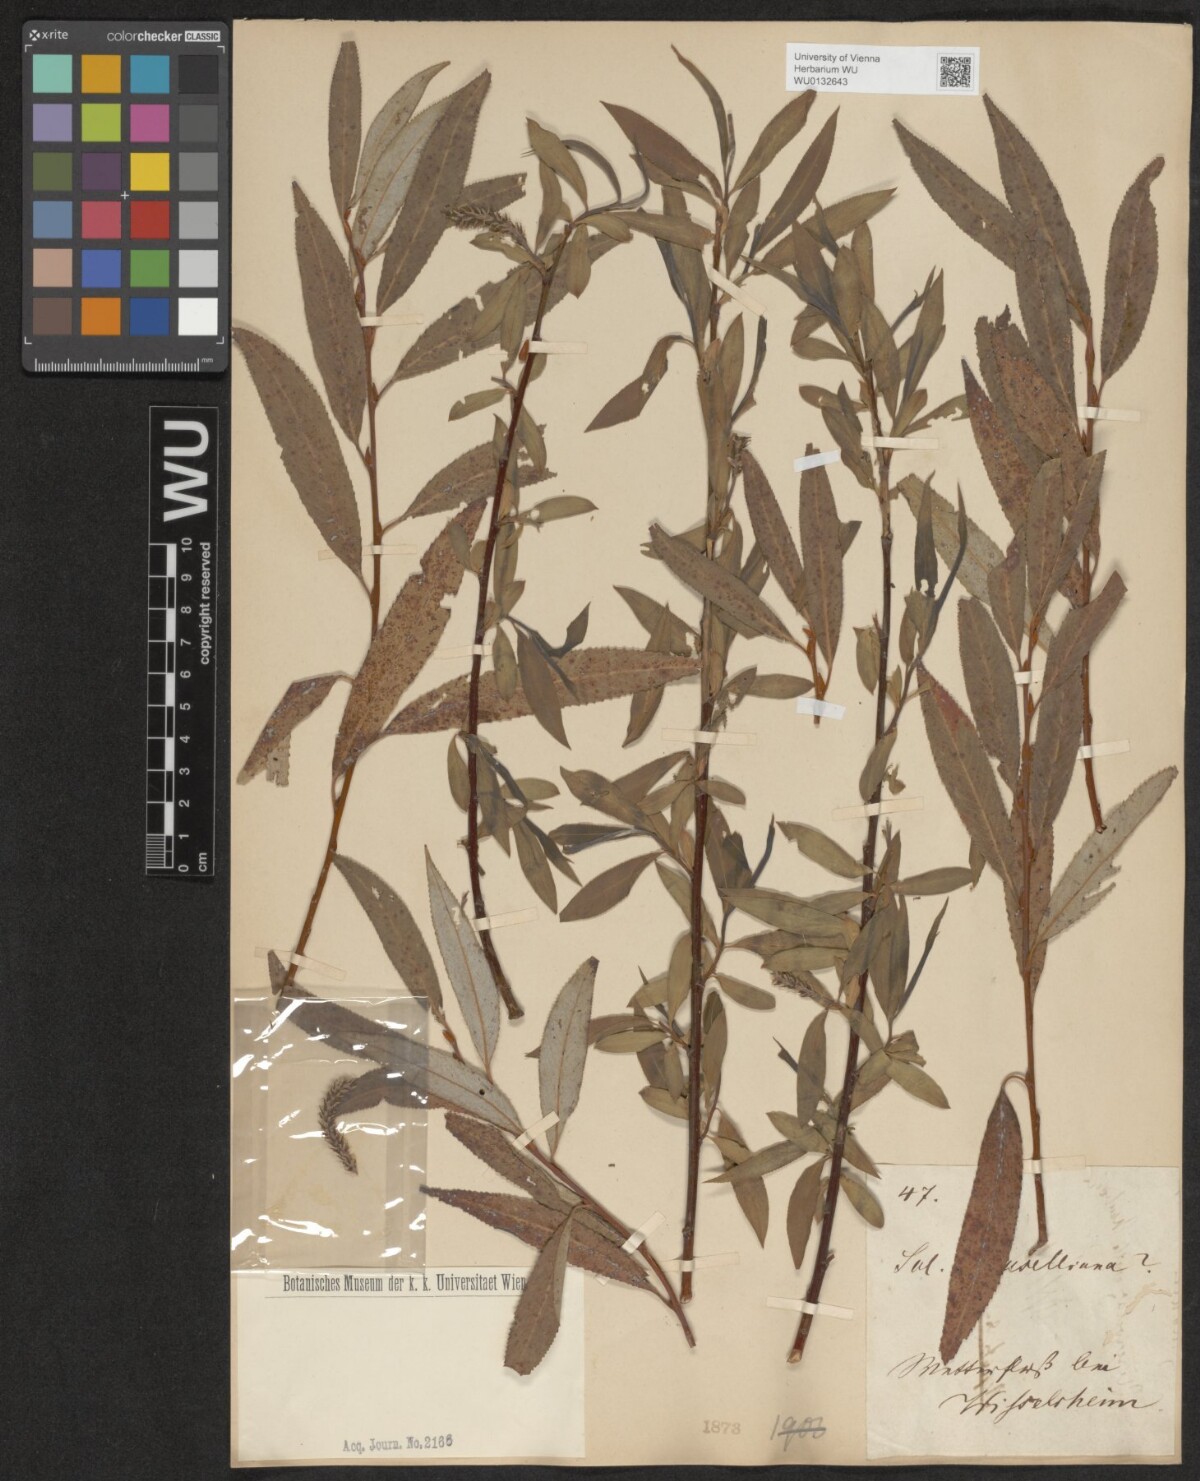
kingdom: Plantae
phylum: Tracheophyta
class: Magnoliopsida
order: Malpighiales
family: Salicaceae
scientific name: Salicaceae
